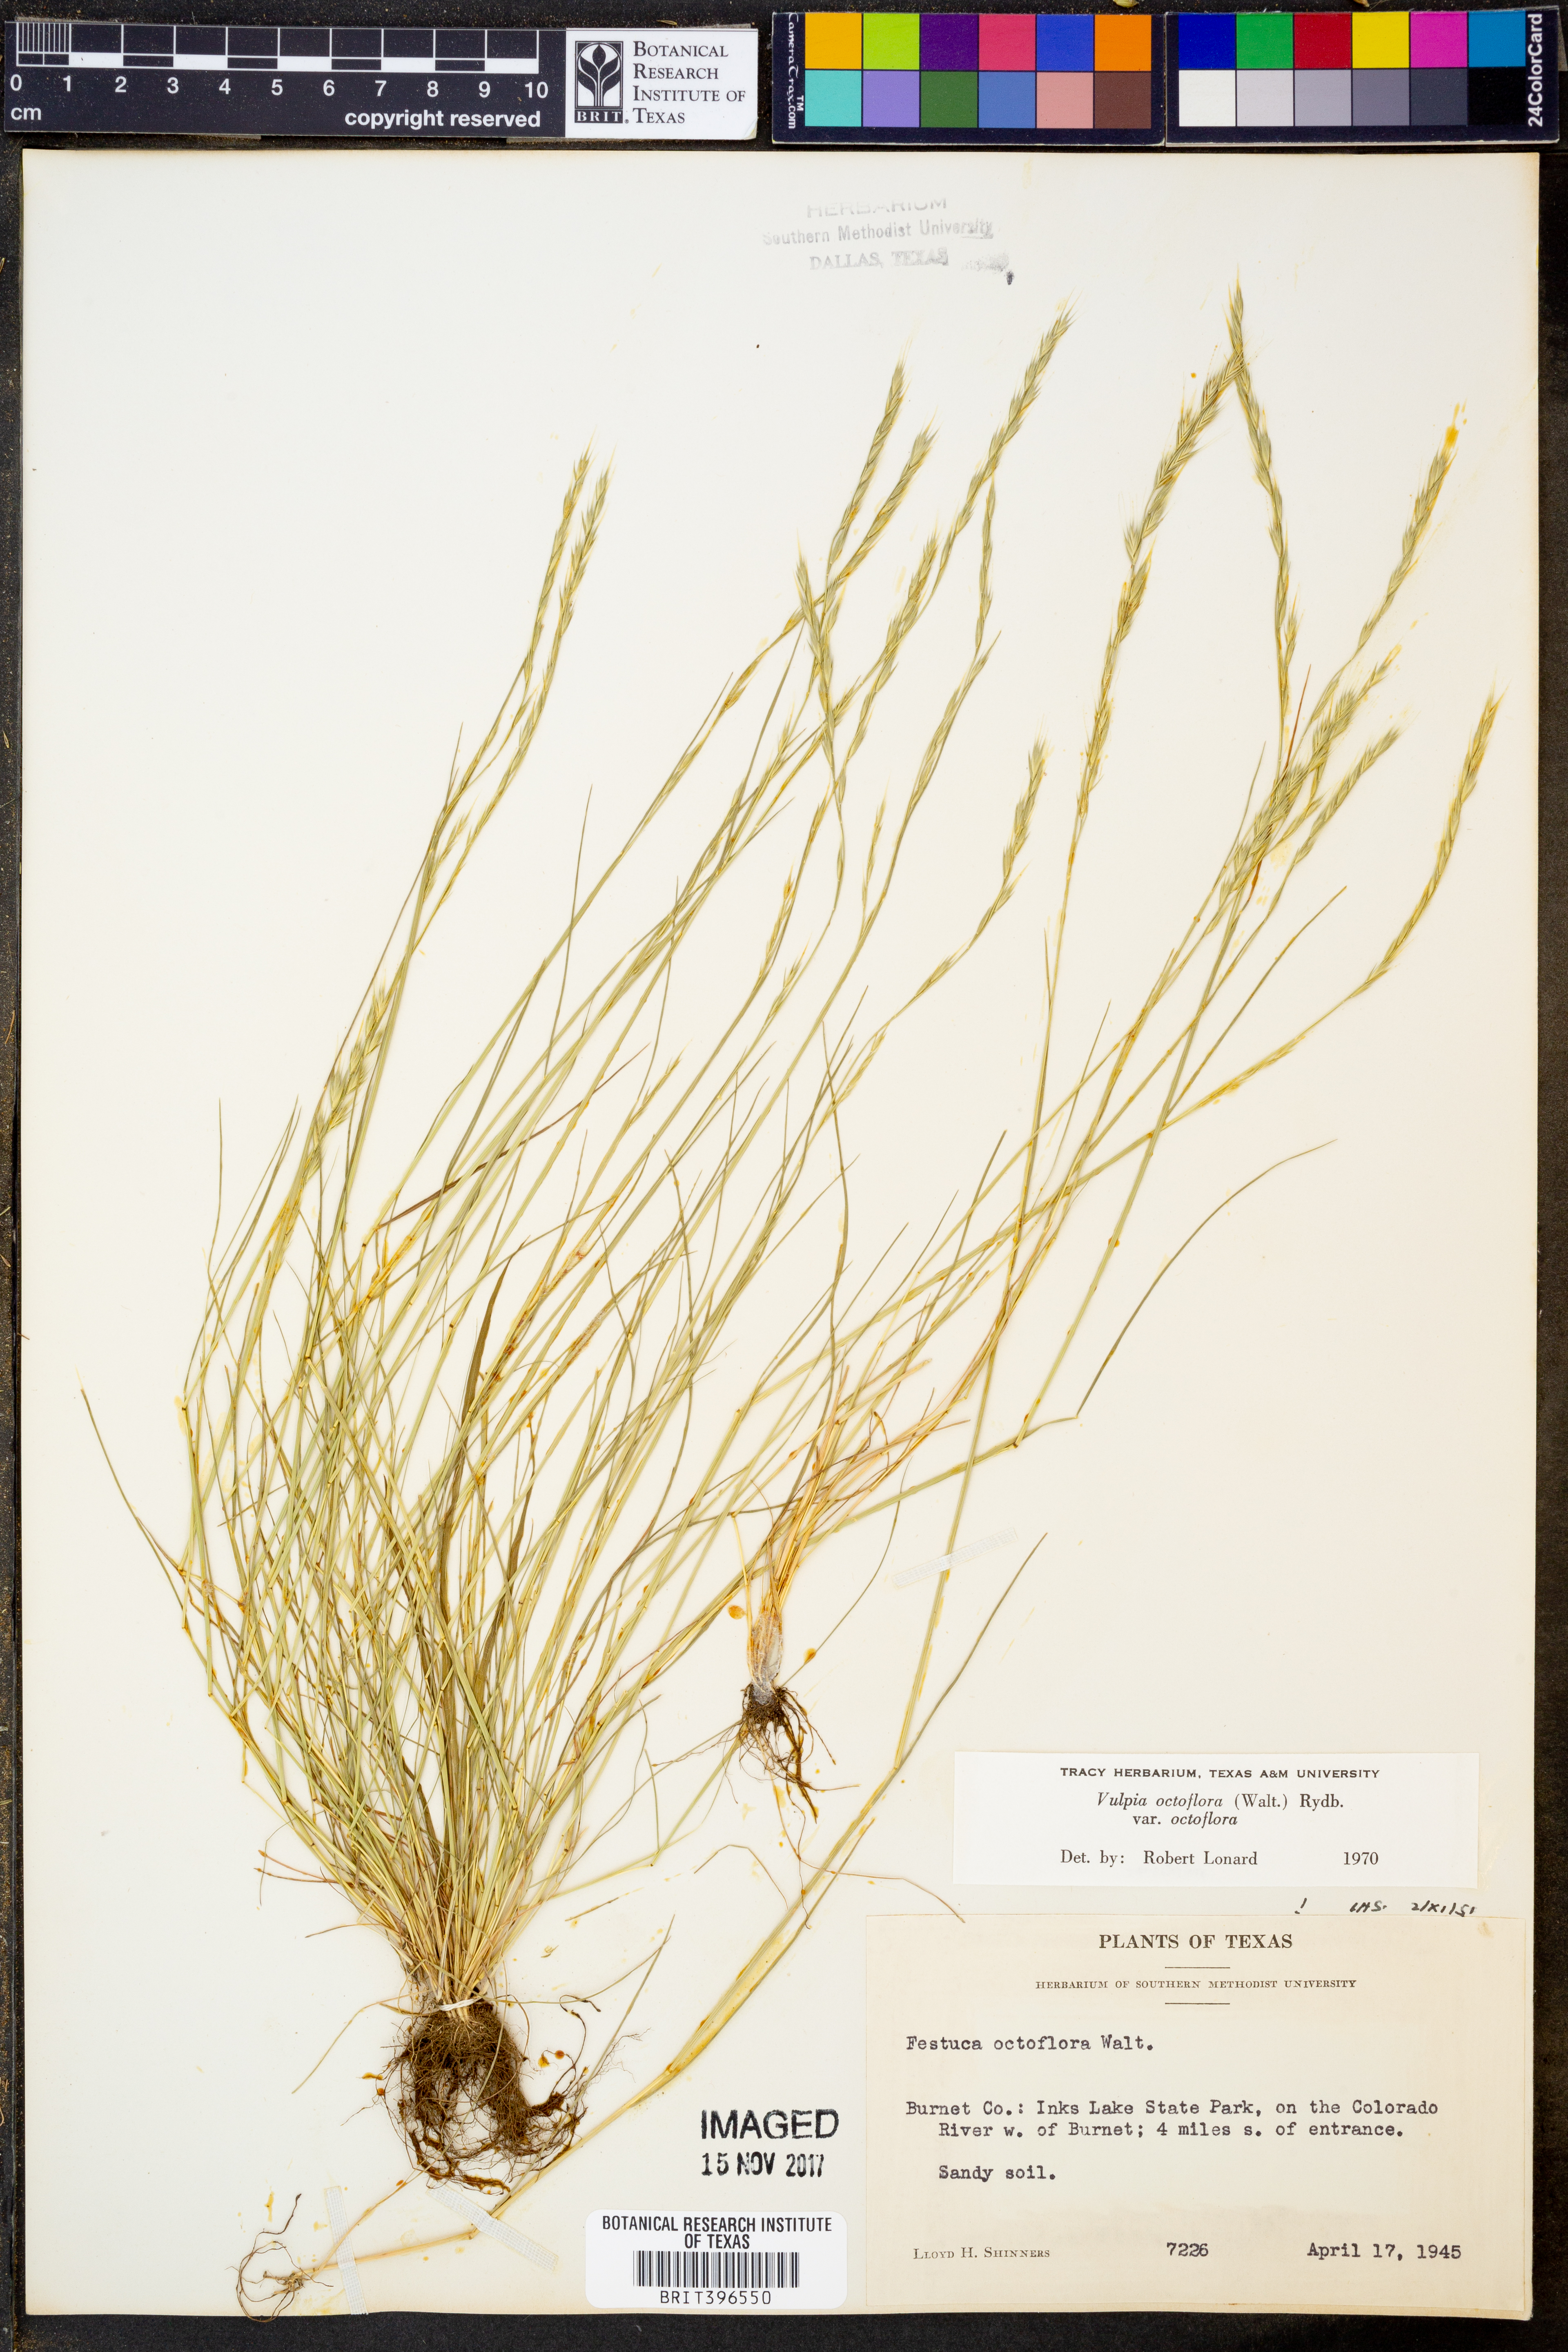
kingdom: Plantae
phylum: Tracheophyta
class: Liliopsida
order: Poales
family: Poaceae
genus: Festuca
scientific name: Festuca octoflora
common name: Sixweeks grass
